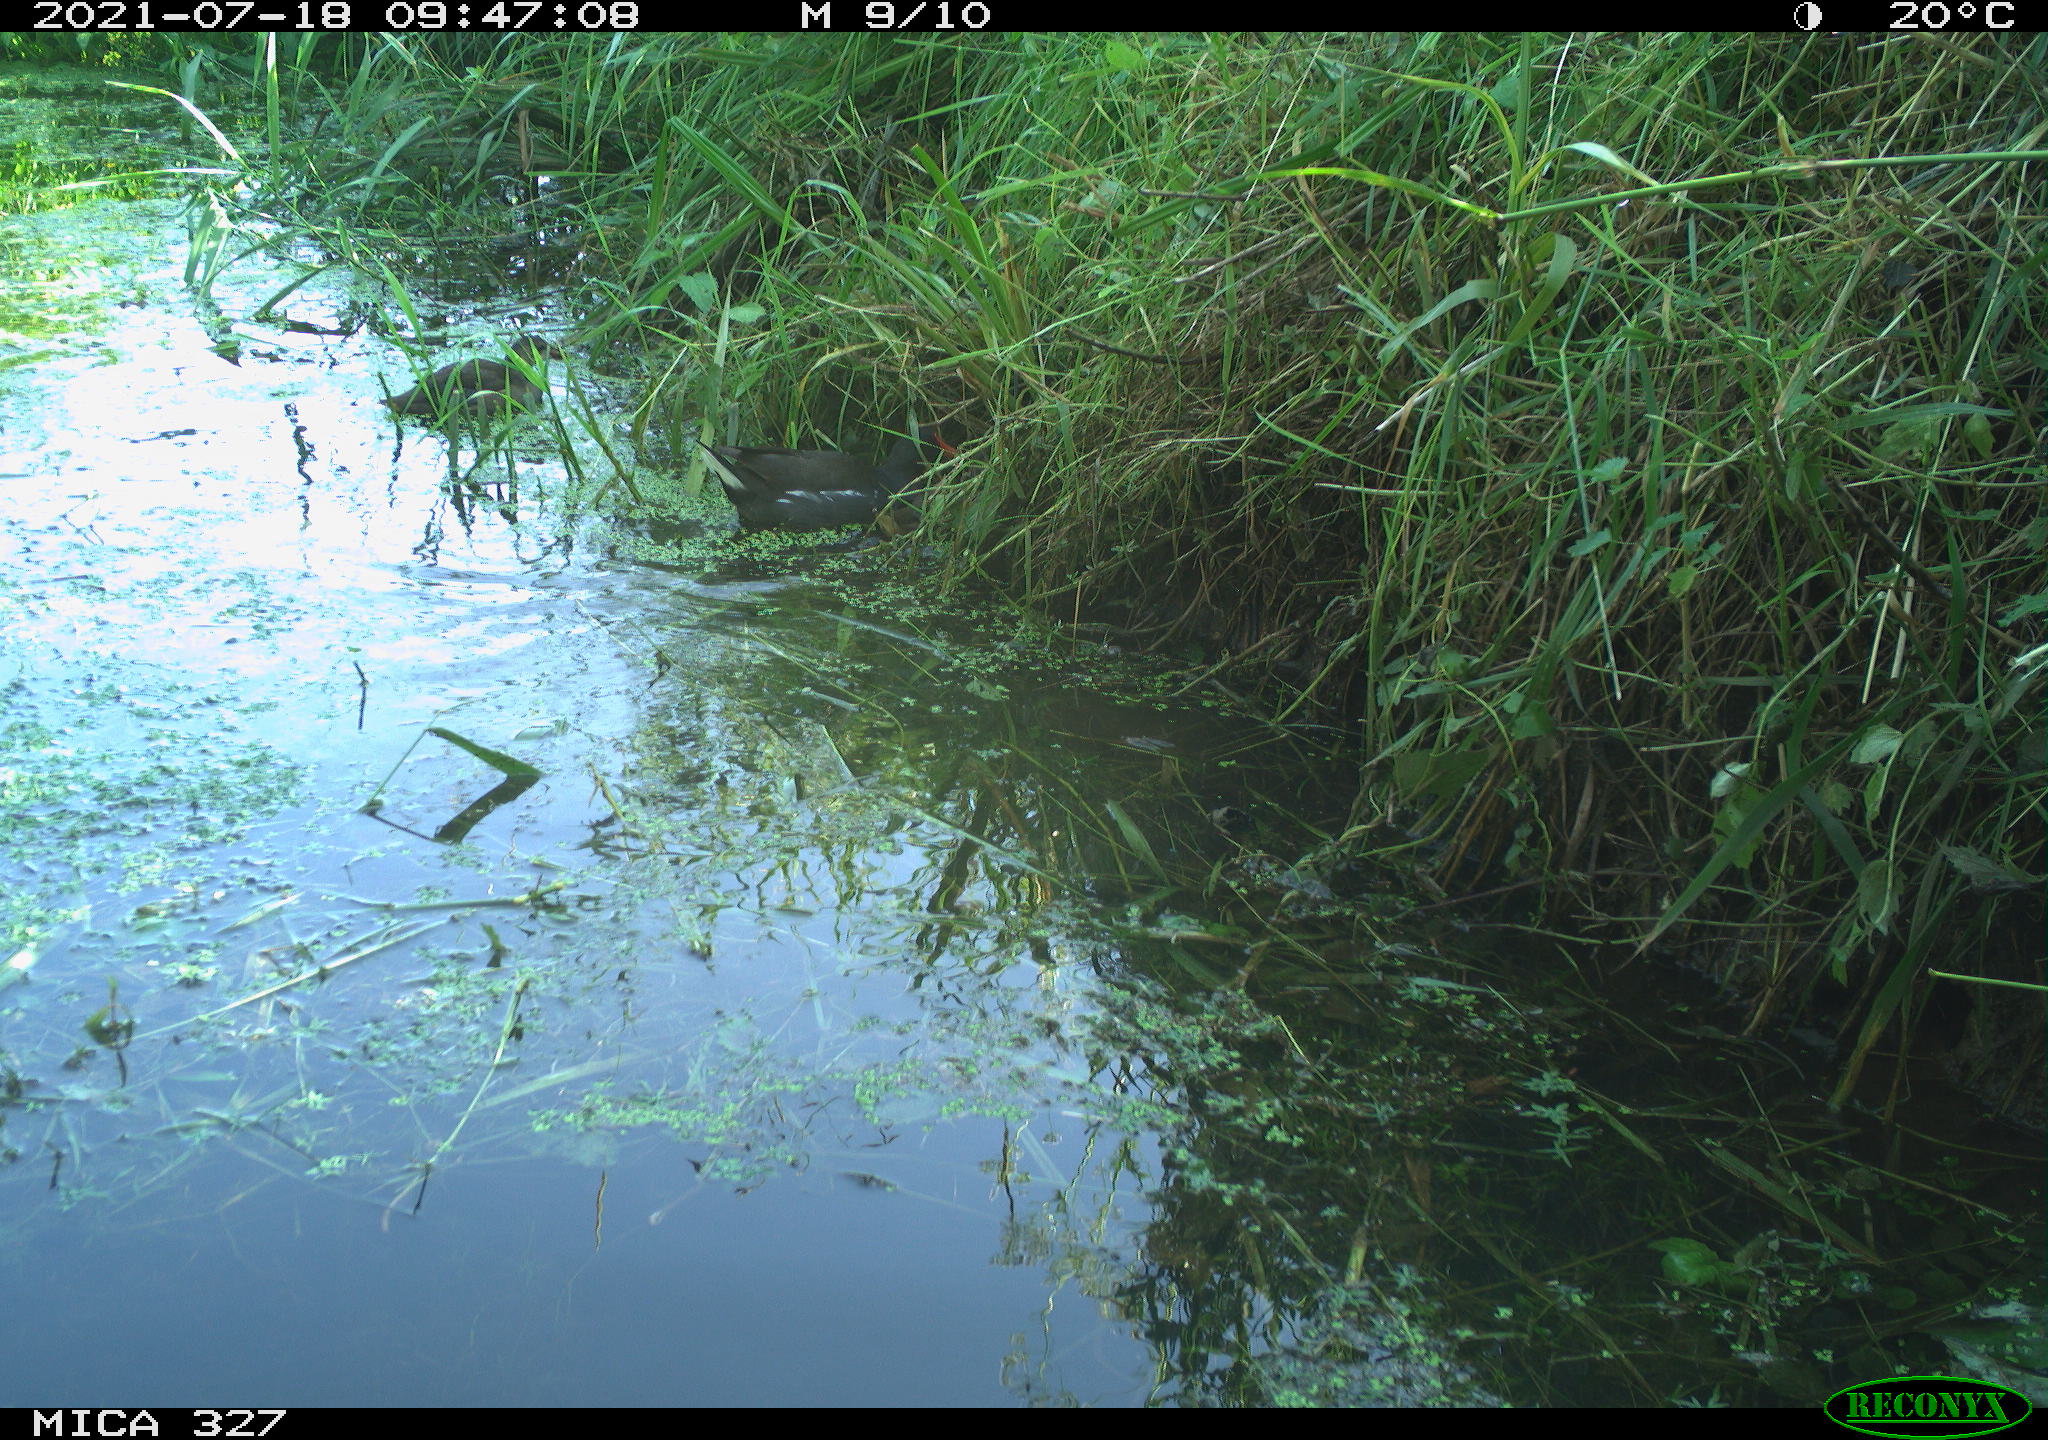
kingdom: Animalia
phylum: Chordata
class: Aves
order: Gruiformes
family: Rallidae
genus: Gallinula
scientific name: Gallinula chloropus
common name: Common moorhen
